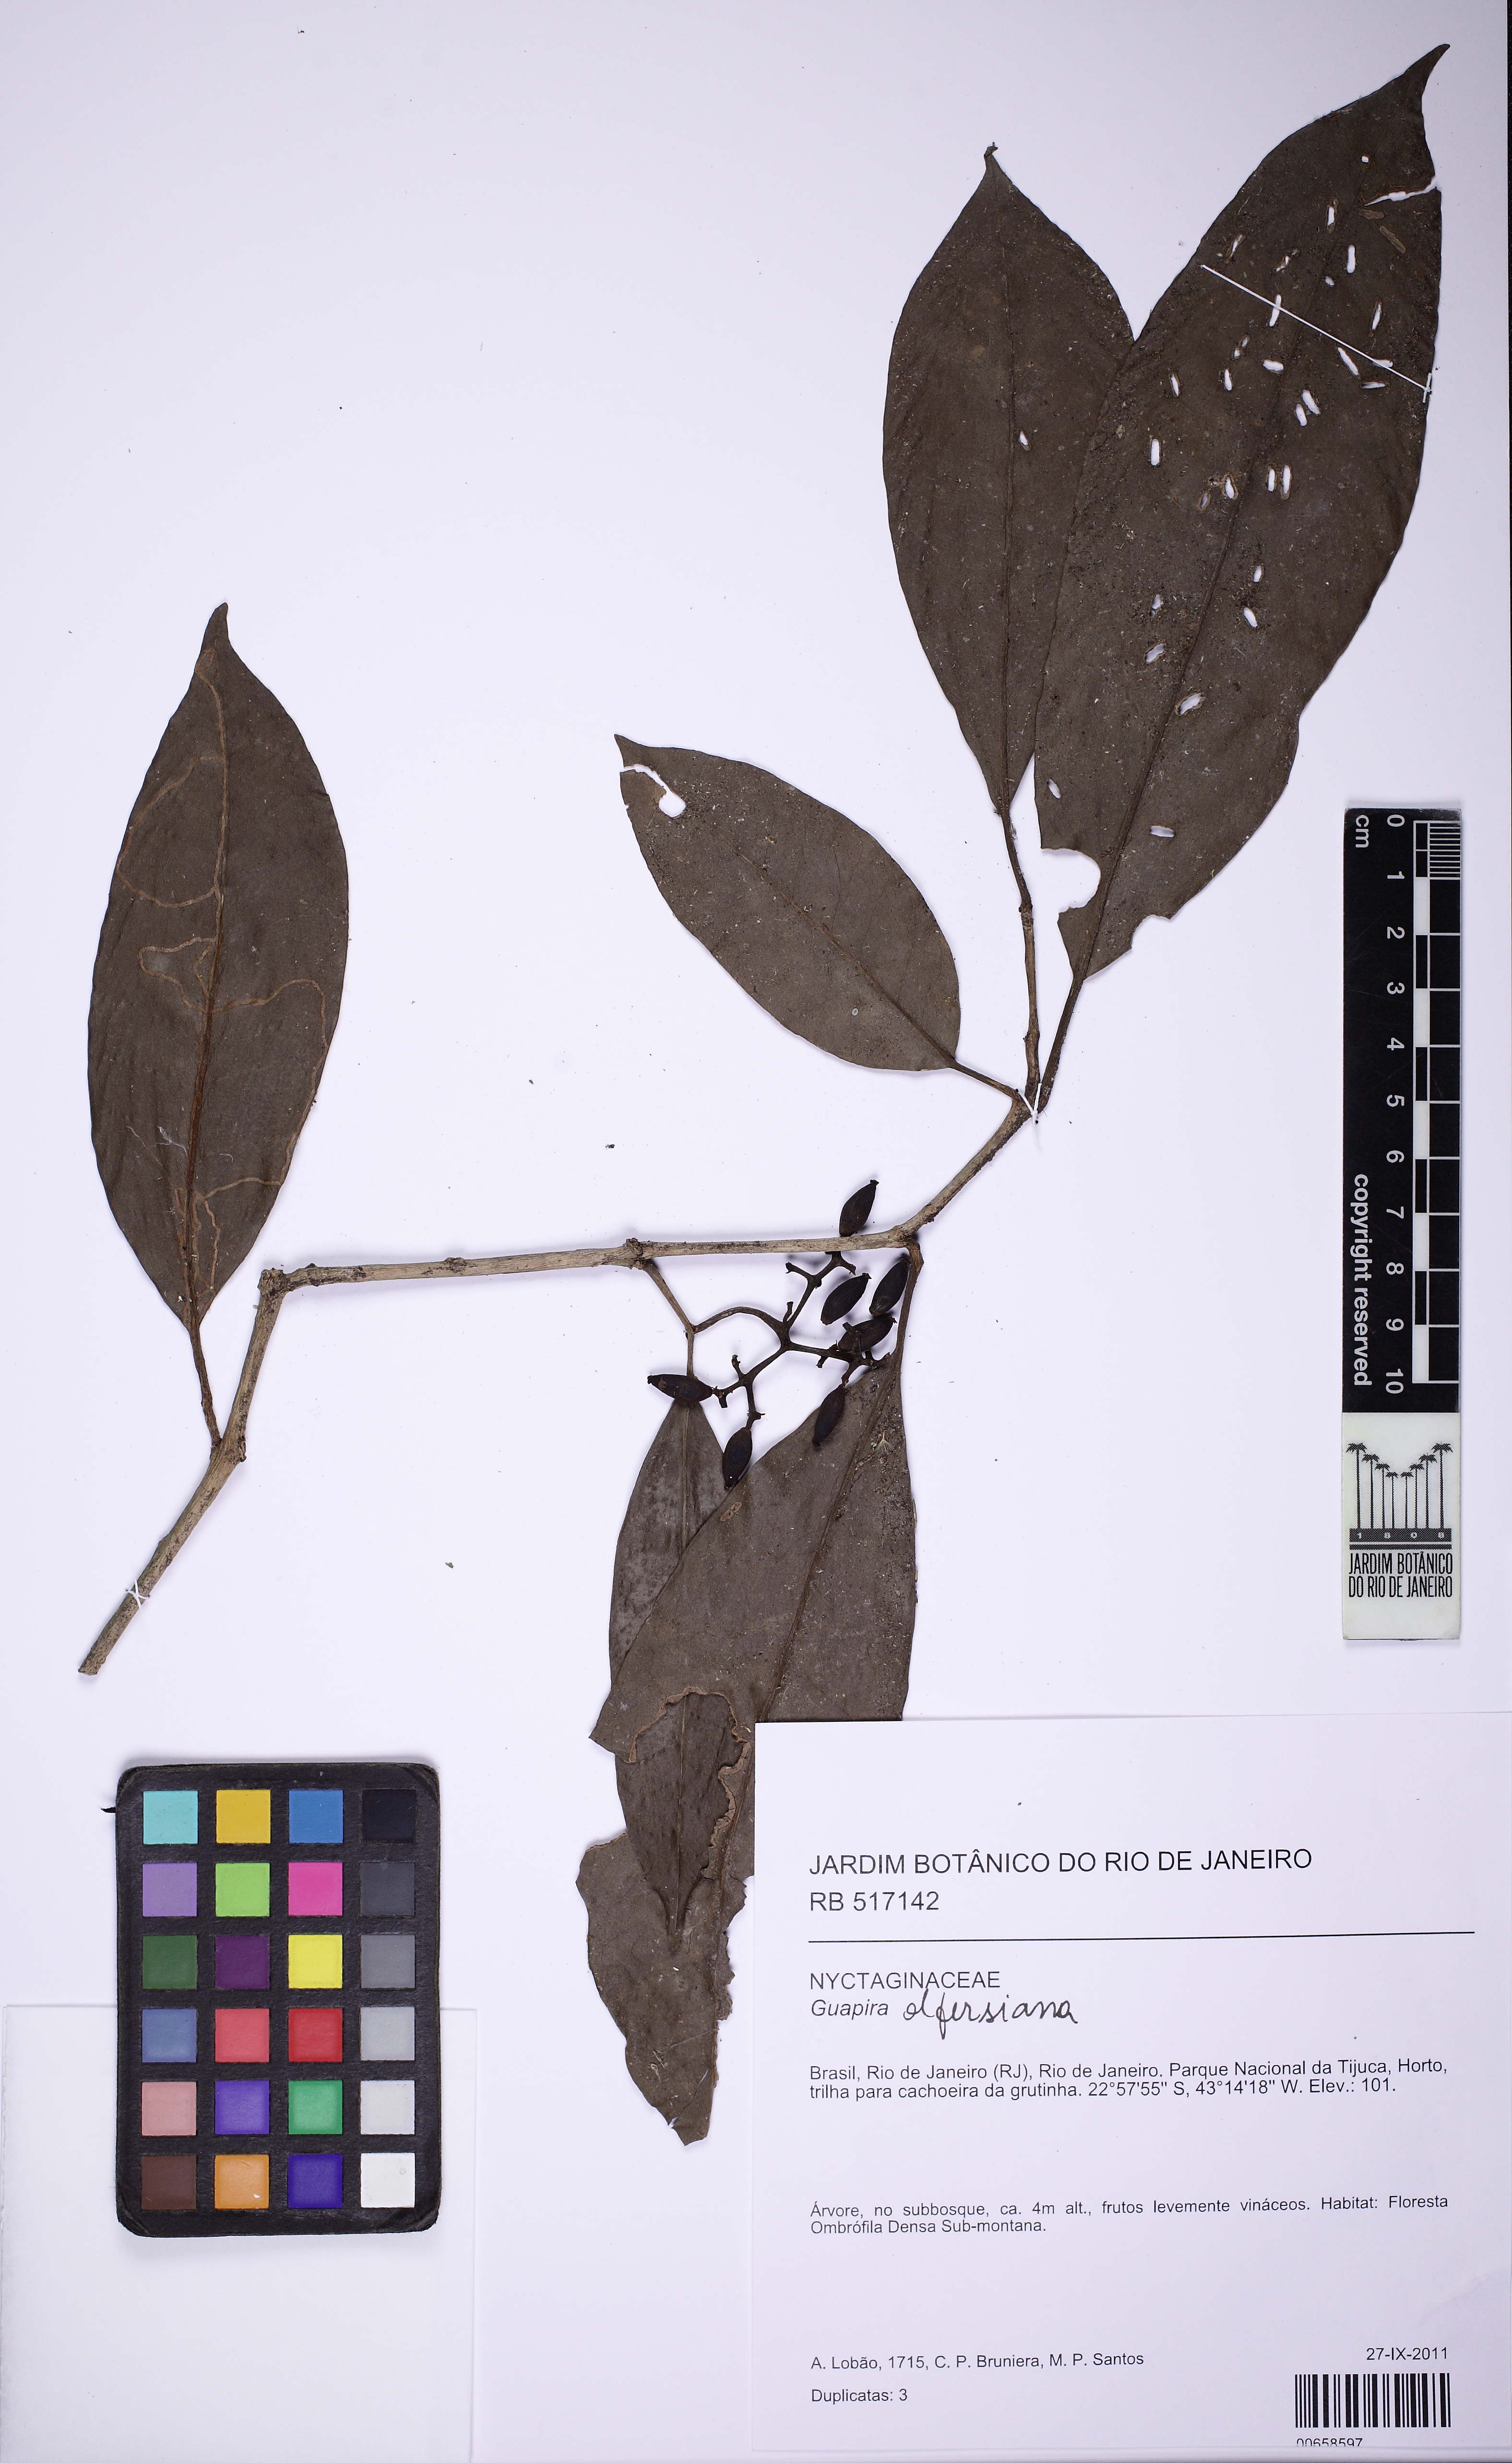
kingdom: Plantae
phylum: Tracheophyta
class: Magnoliopsida
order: Caryophyllales
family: Nyctaginaceae
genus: Guapira
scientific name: Guapira opposita
